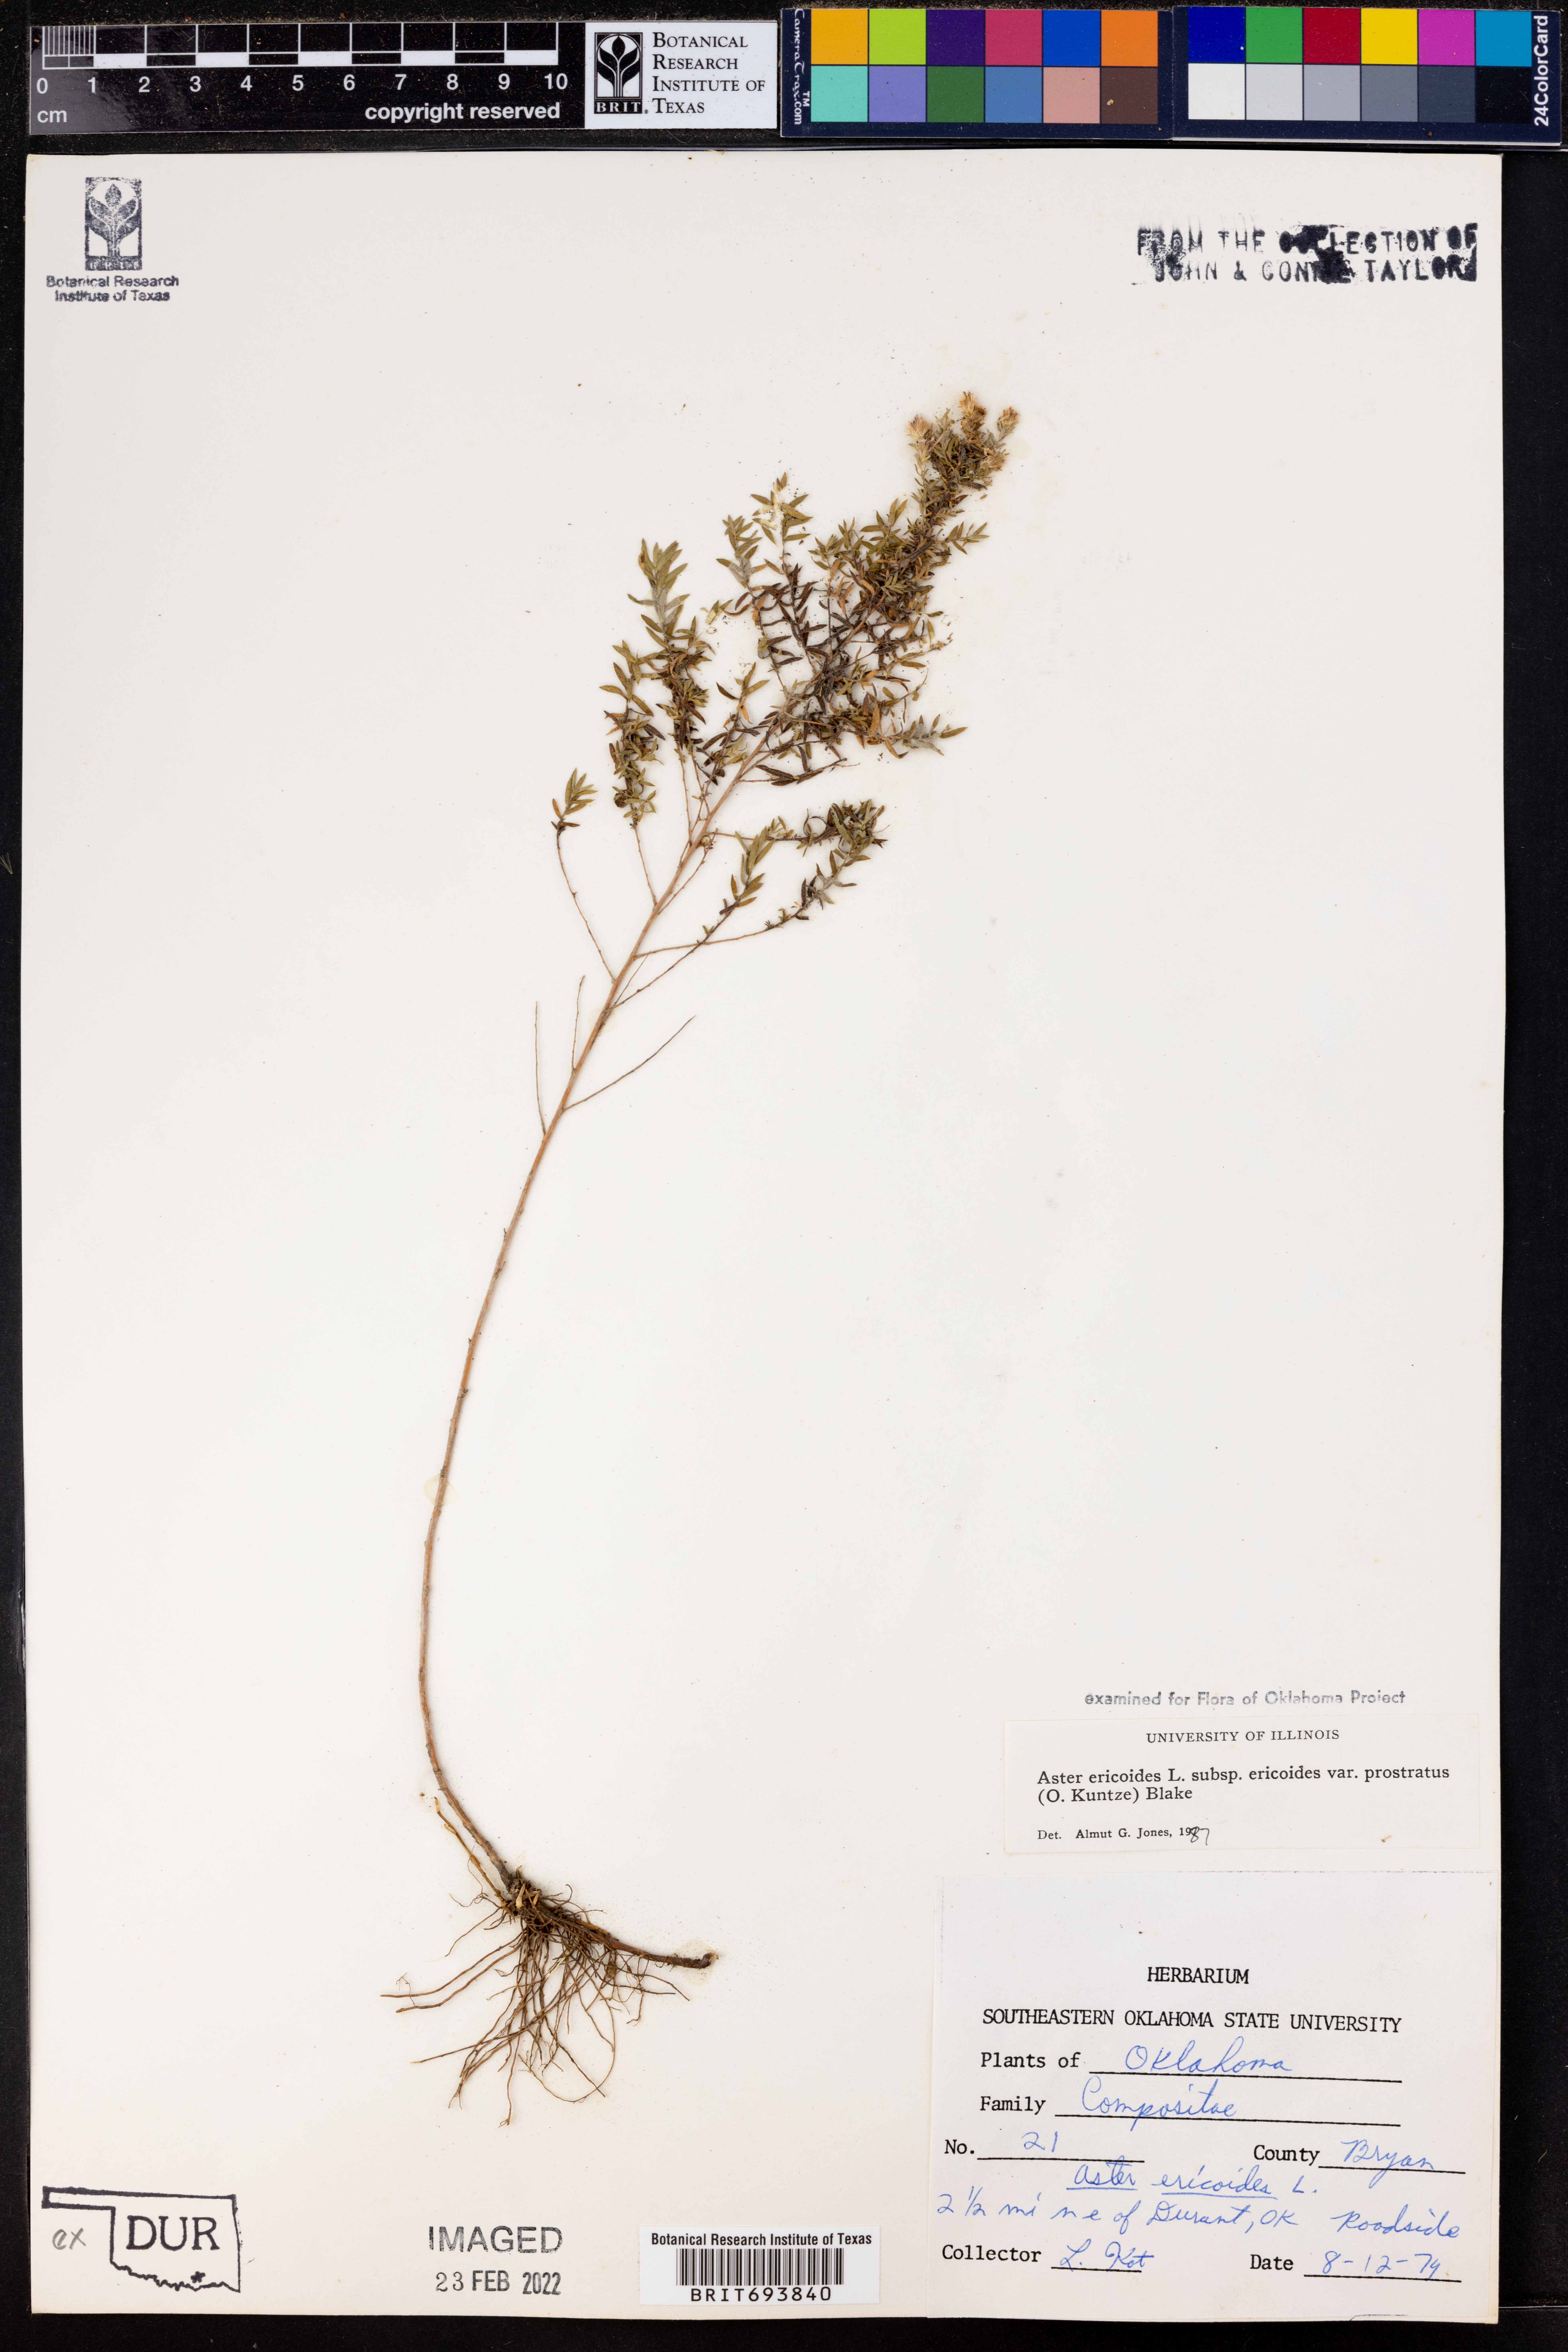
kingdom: Plantae
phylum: Tracheophyta
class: Magnoliopsida
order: Asterales
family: Asteraceae
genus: Symphyotrichum
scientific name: Symphyotrichum ericoides
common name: Heath aster
